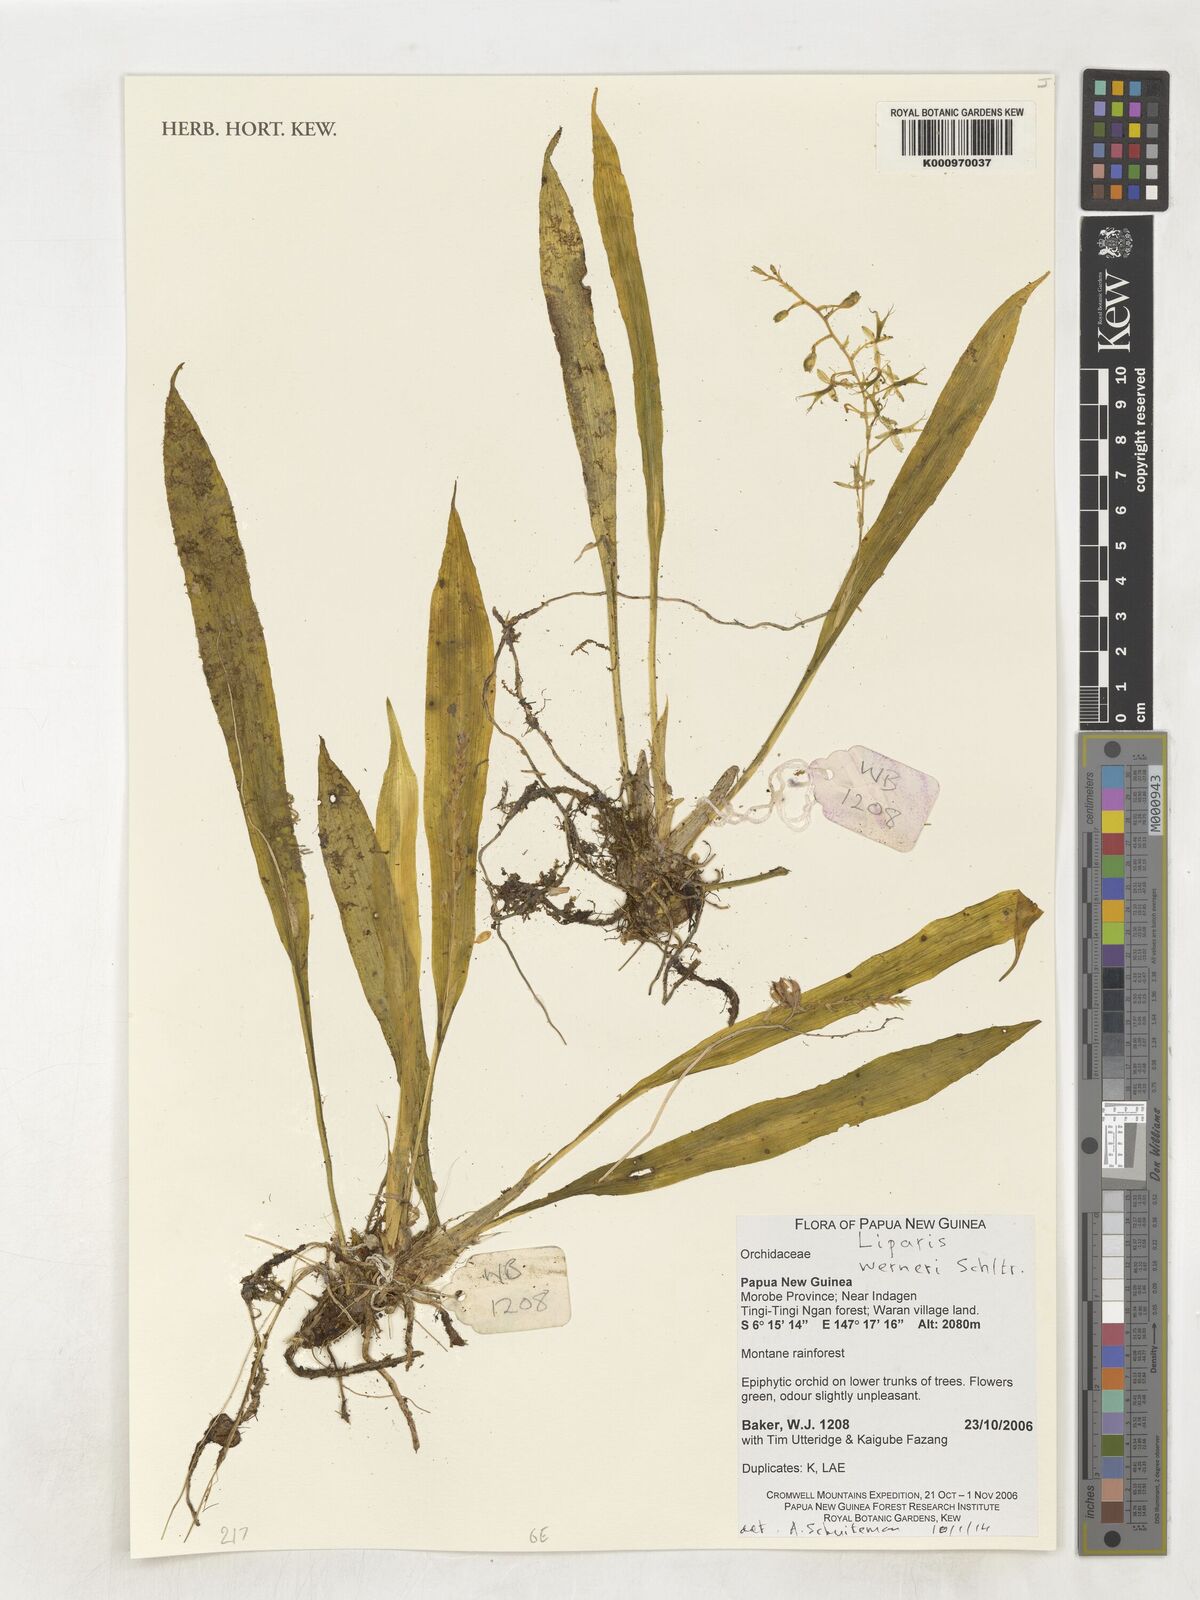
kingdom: Plantae
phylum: Tracheophyta
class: Liliopsida
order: Asparagales
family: Orchidaceae
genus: Liparis
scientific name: Liparis werneri
